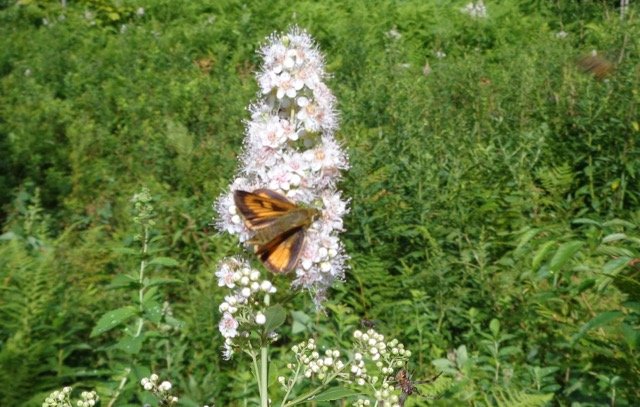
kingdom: Animalia
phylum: Arthropoda
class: Insecta
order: Lepidoptera
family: Hesperiidae
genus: Atrytone
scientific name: Atrytone delaware
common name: Delaware Skipper
